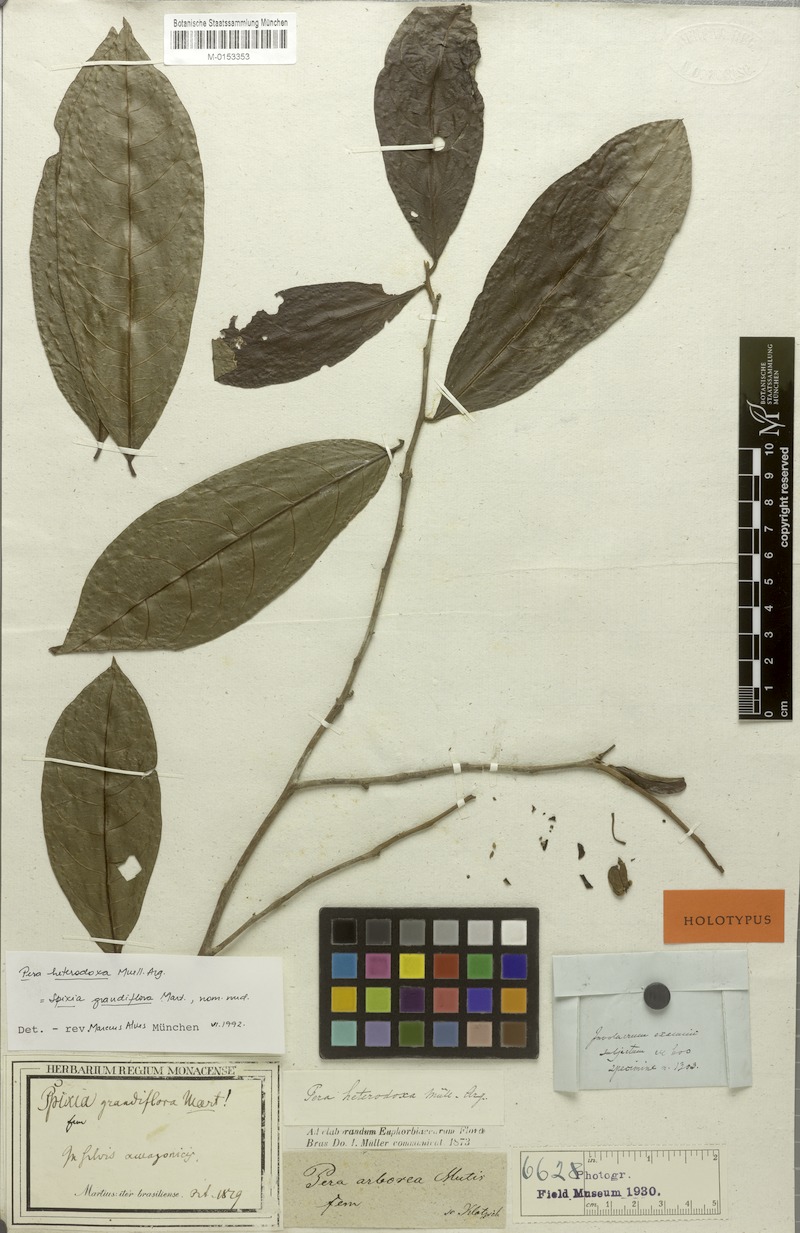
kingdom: Plantae
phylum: Tracheophyta
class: Magnoliopsida
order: Malpighiales
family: Peraceae
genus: Pera
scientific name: Pera distichophylla
